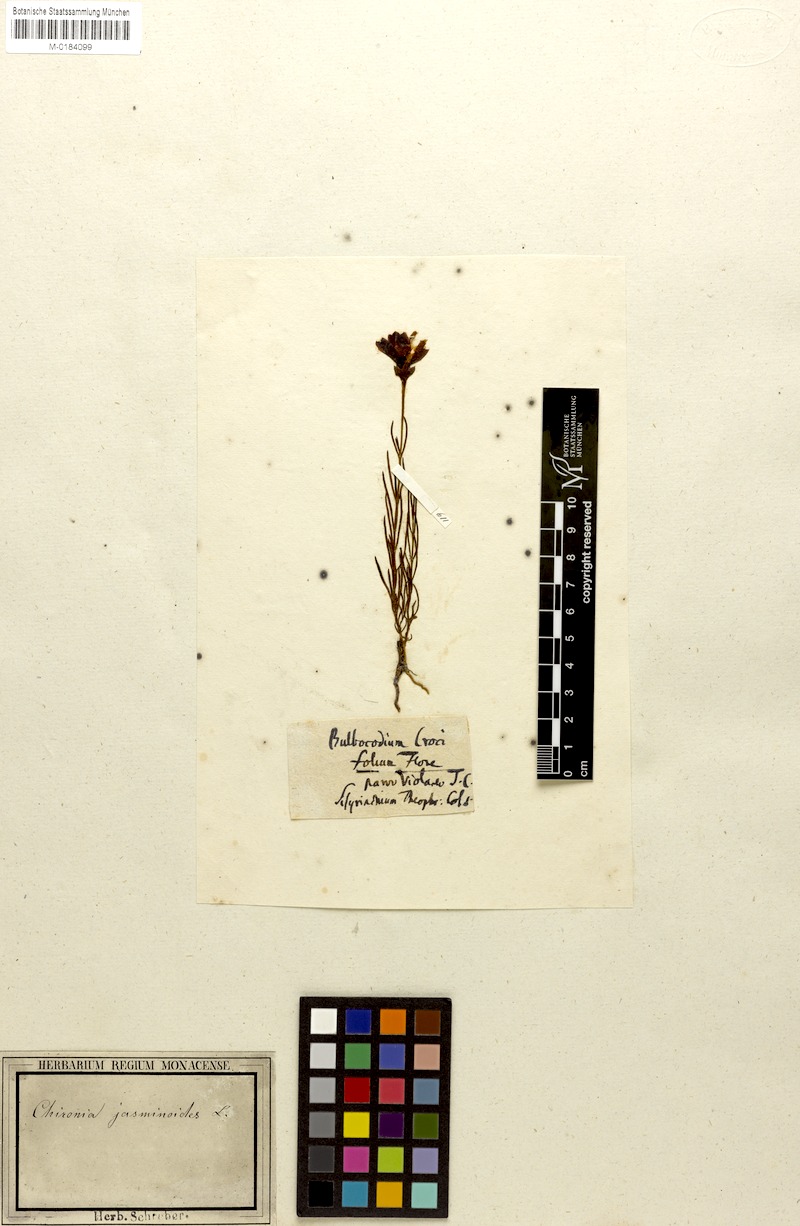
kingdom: Plantae
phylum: Tracheophyta
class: Magnoliopsida
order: Gentianales
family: Gentianaceae
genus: Chironia
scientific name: Chironia linoides
